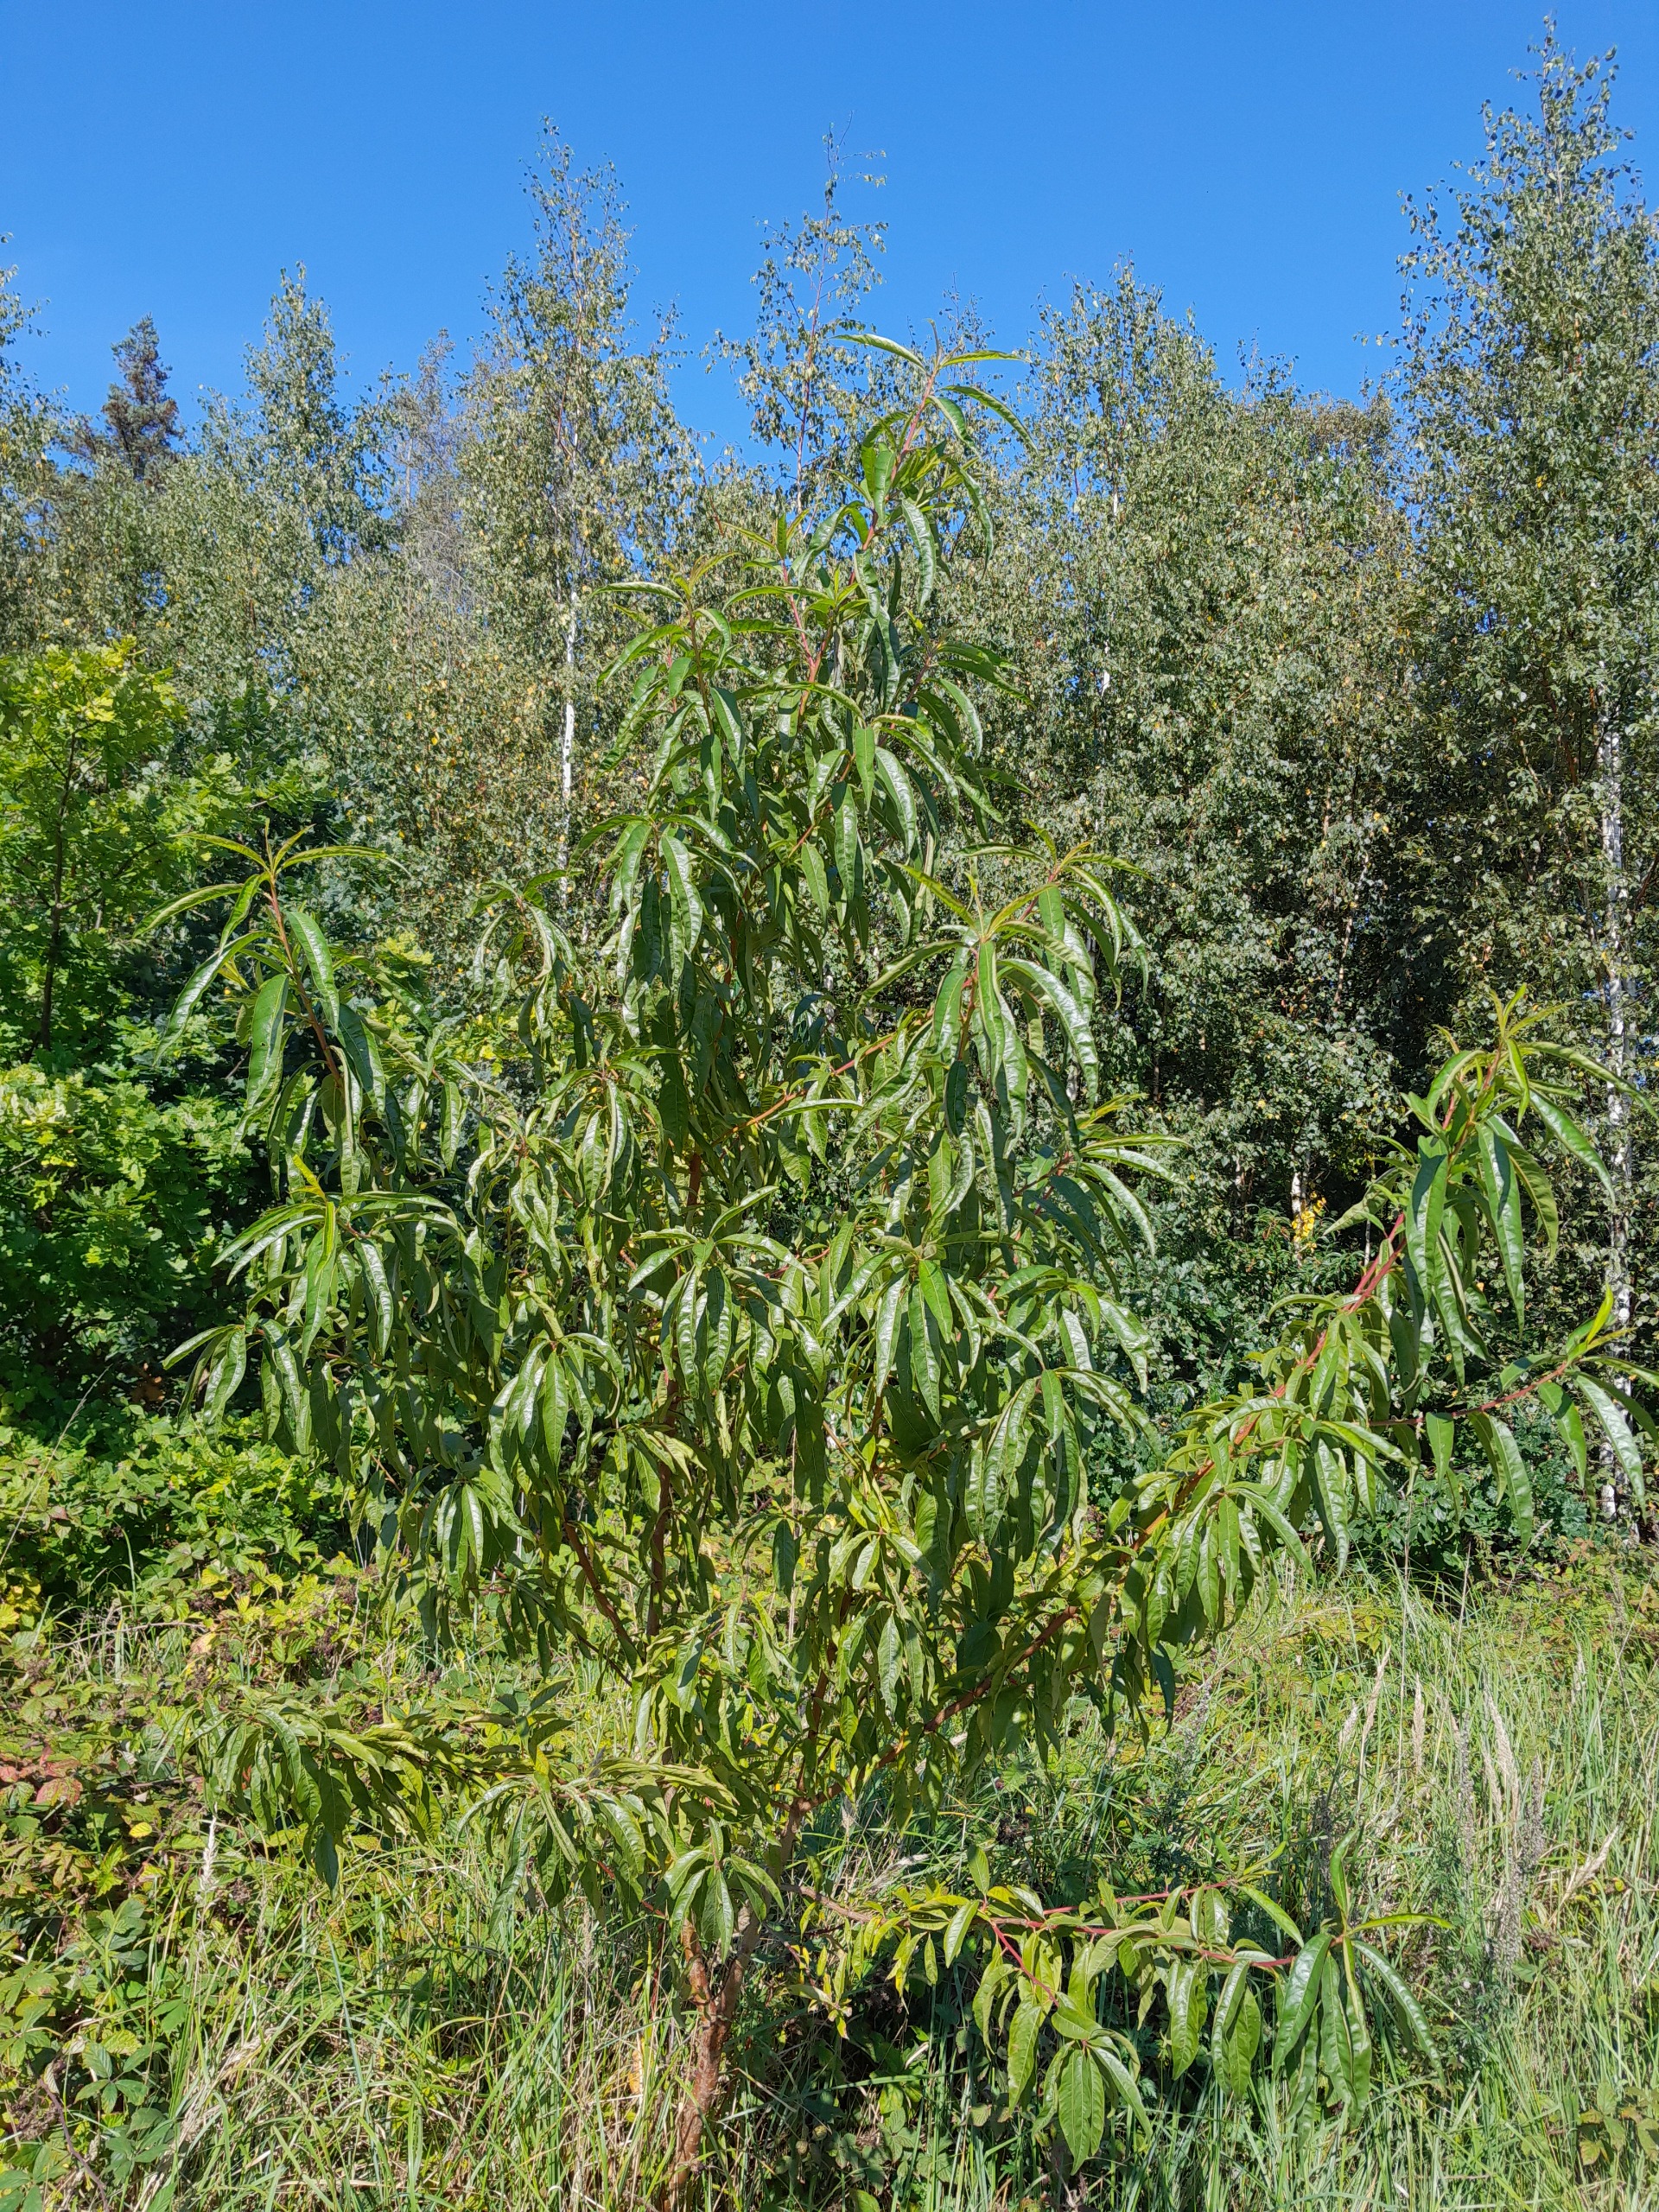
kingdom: Plantae
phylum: Tracheophyta
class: Magnoliopsida
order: Rosales
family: Rosaceae
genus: Prunus
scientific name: Prunus persica
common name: Fersken
